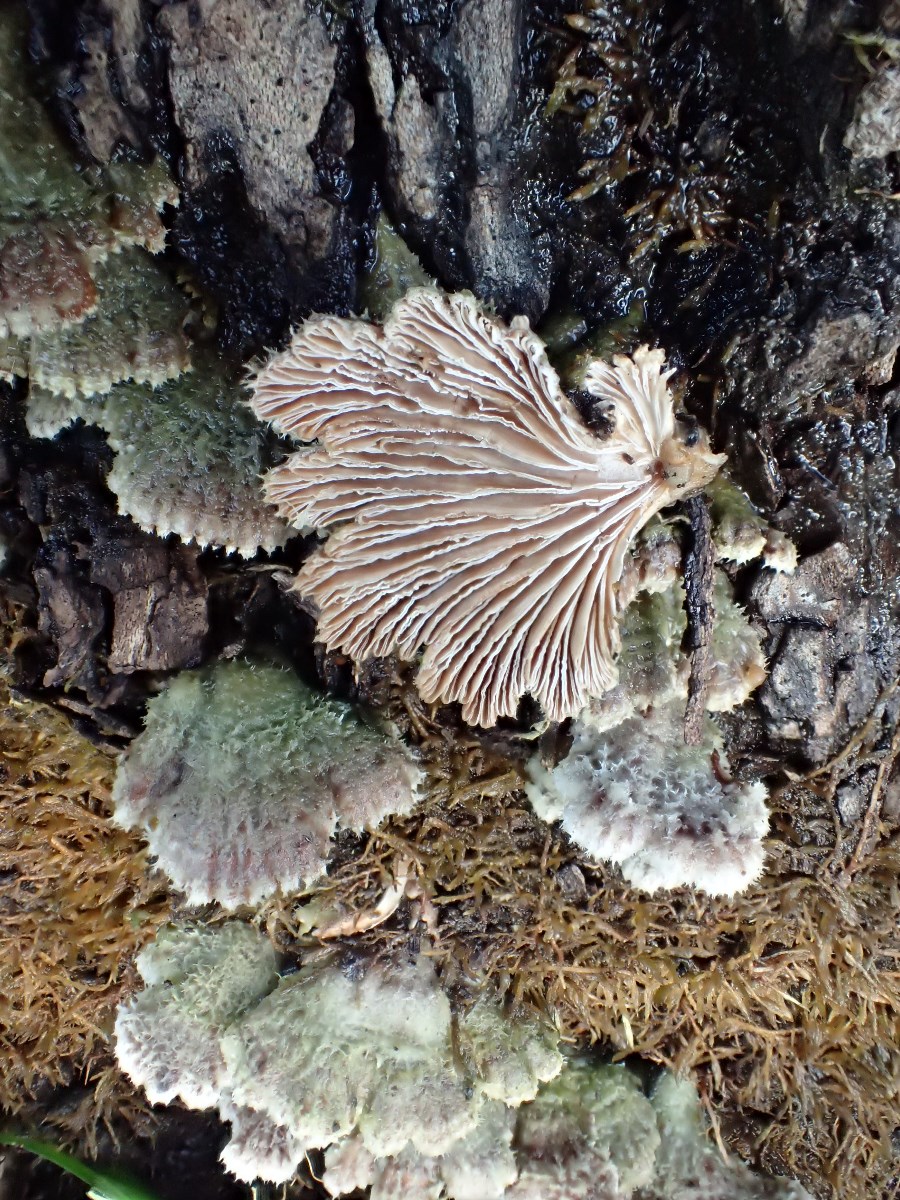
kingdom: Fungi
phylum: Basidiomycota
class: Agaricomycetes
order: Agaricales
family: Schizophyllaceae
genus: Schizophyllum
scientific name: Schizophyllum commune
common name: kløvblad
